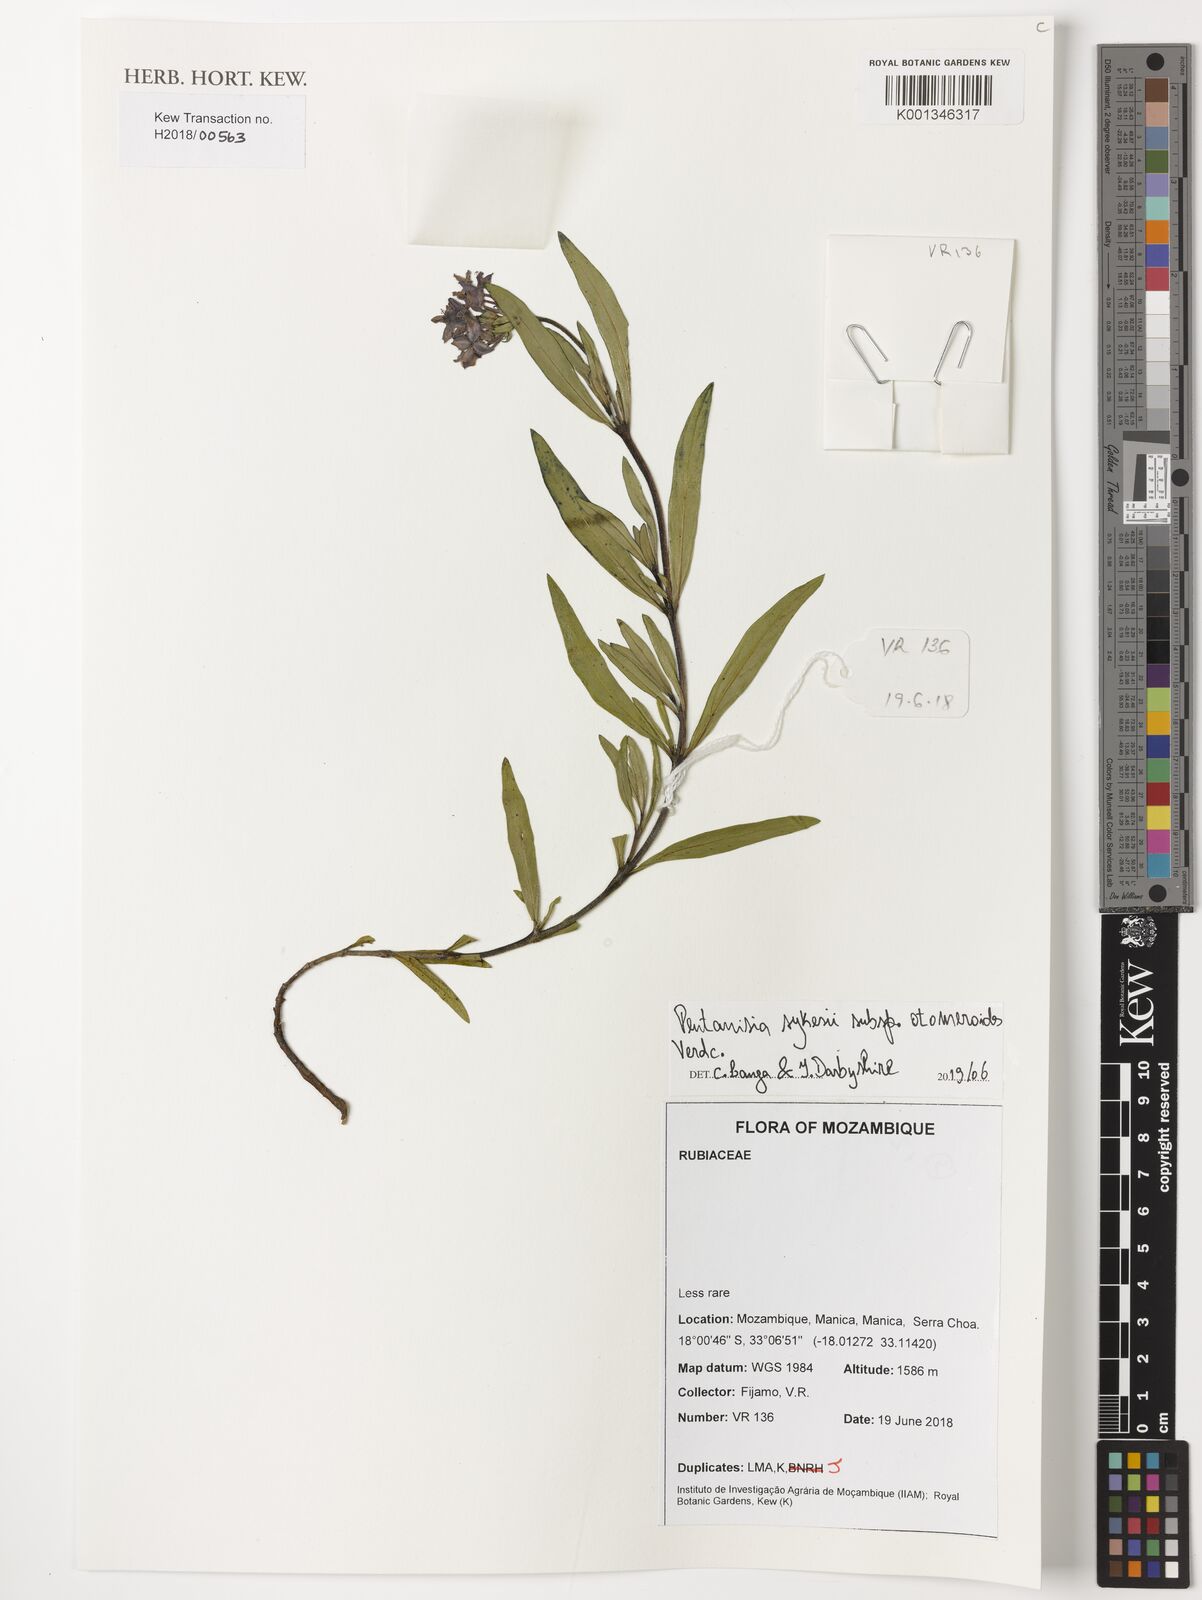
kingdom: Plantae
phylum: Tracheophyta
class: Magnoliopsida
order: Gentianales
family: Rubiaceae
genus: Pentanisia
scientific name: Pentanisia sykesii
